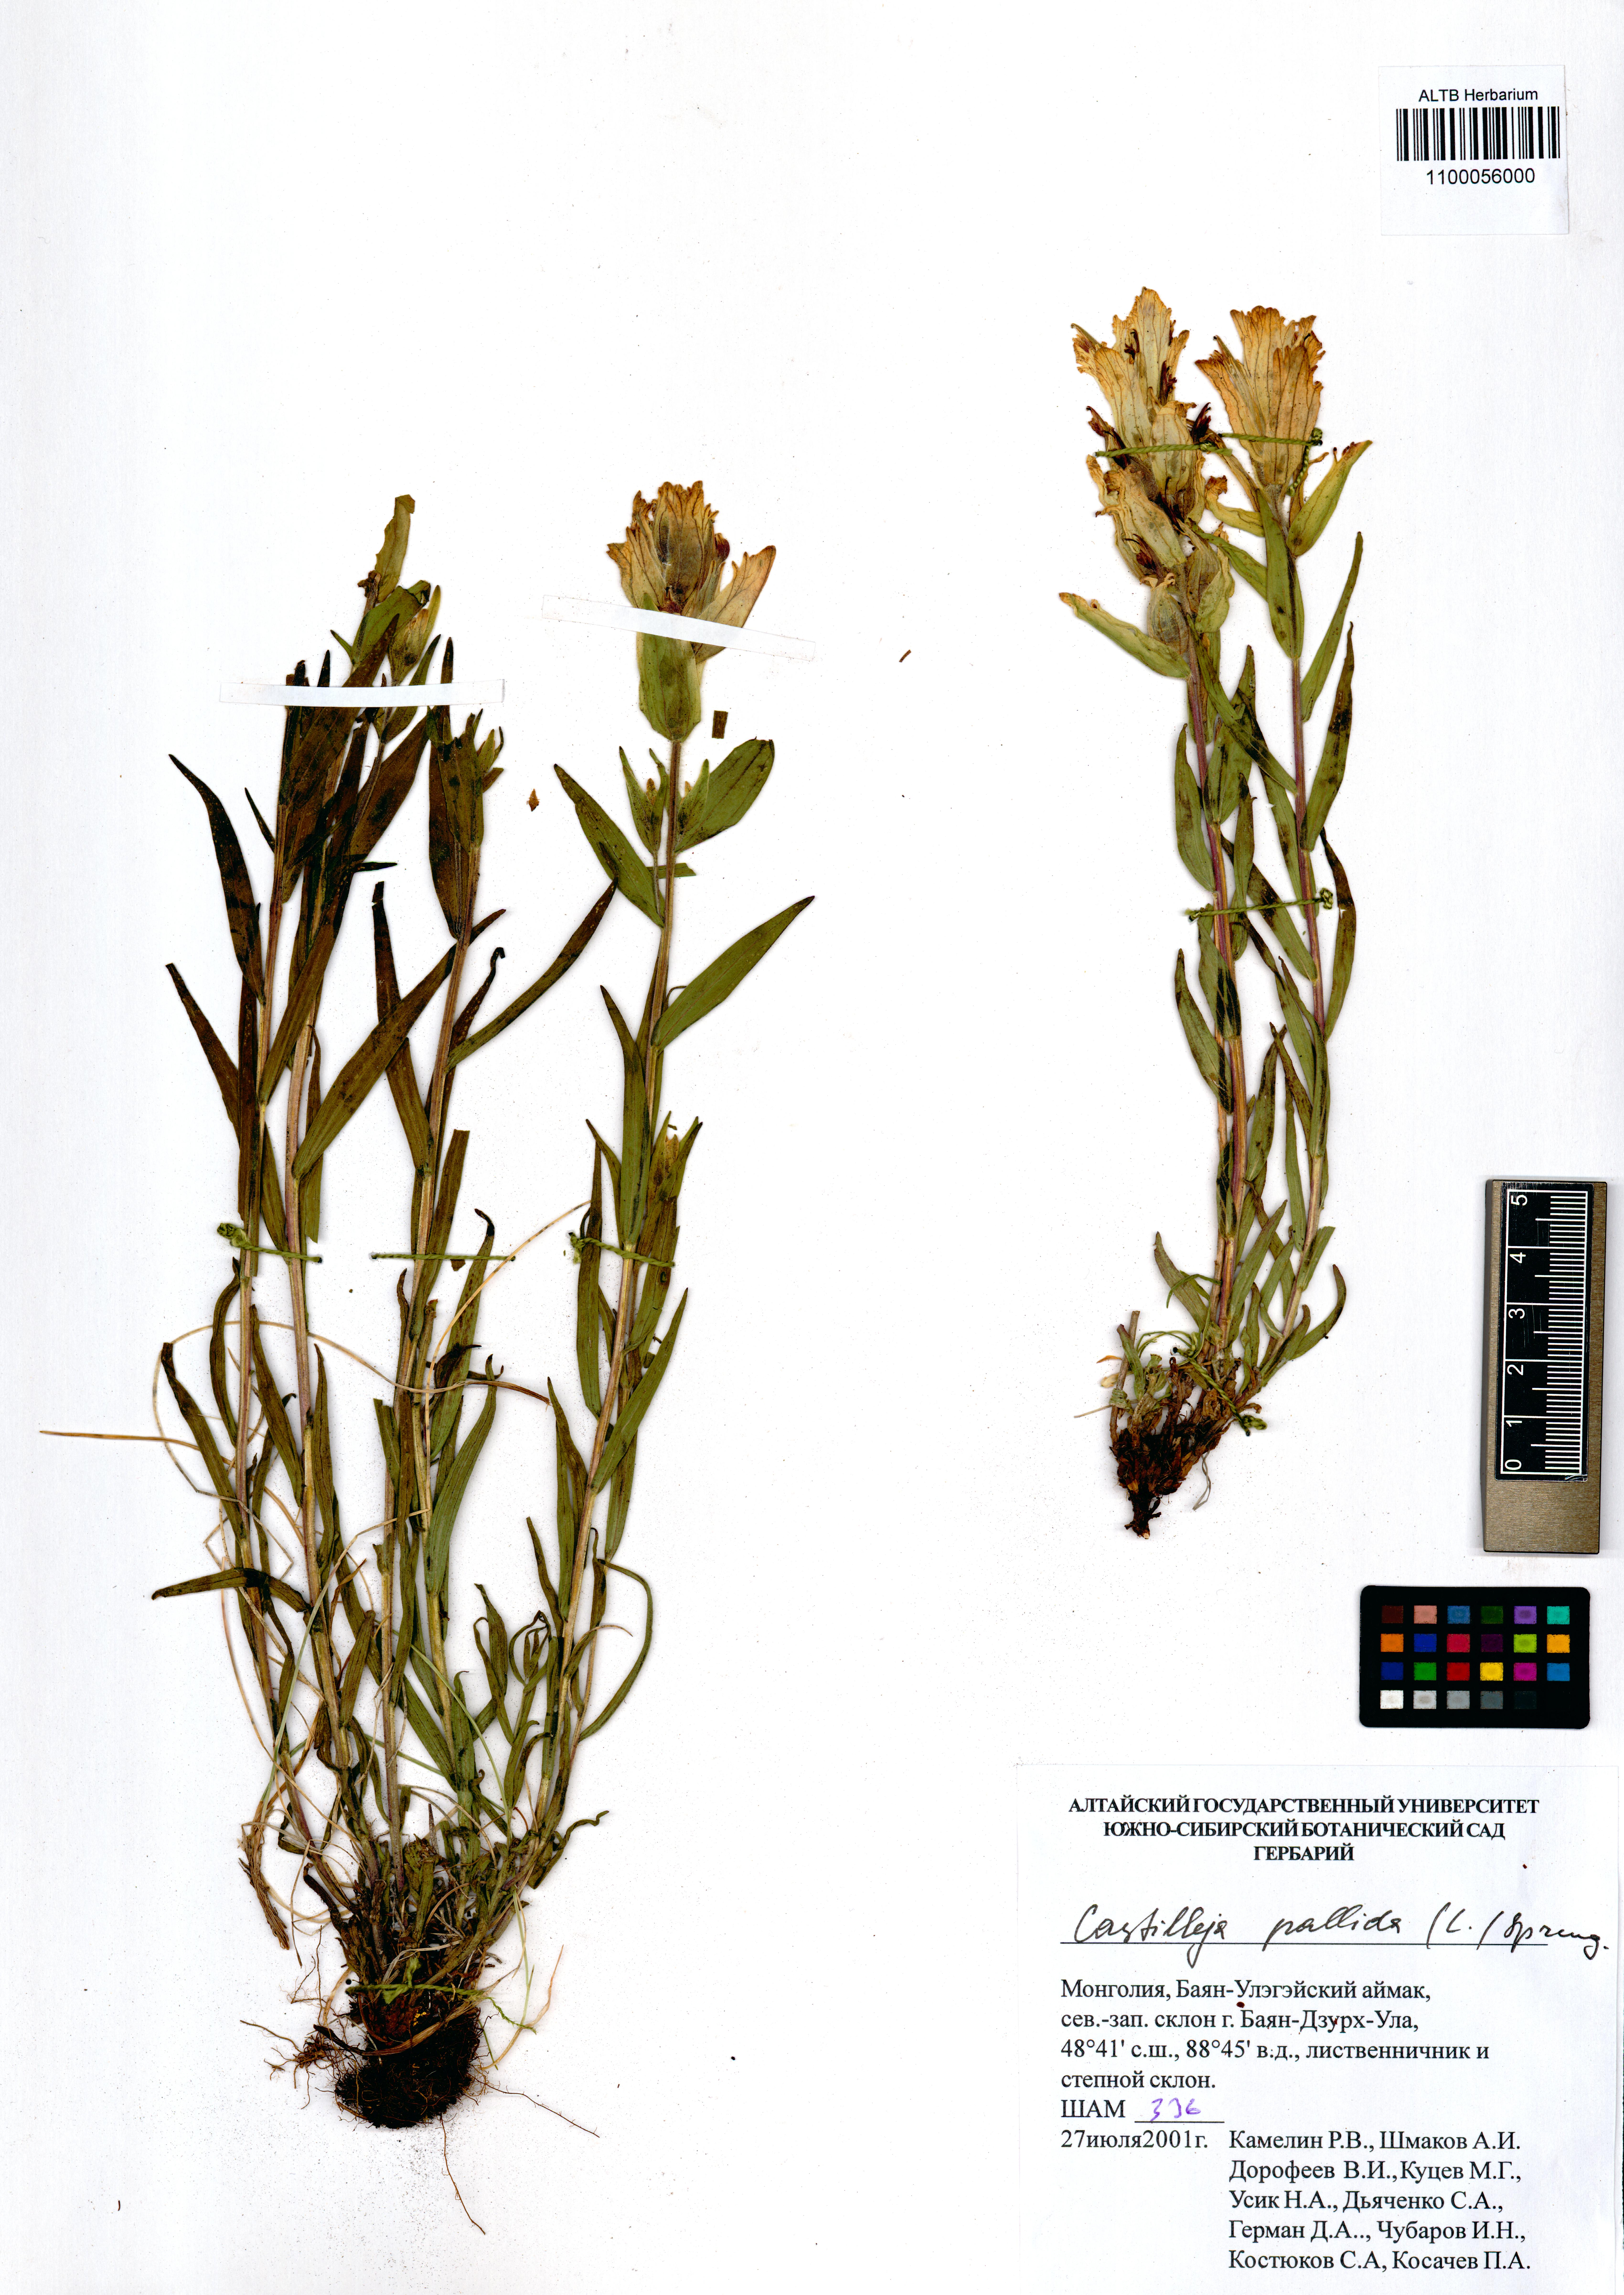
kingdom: Plantae
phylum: Tracheophyta
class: Magnoliopsida
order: Lamiales
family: Orobanchaceae
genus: Castilleja
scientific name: Castilleja pallida
